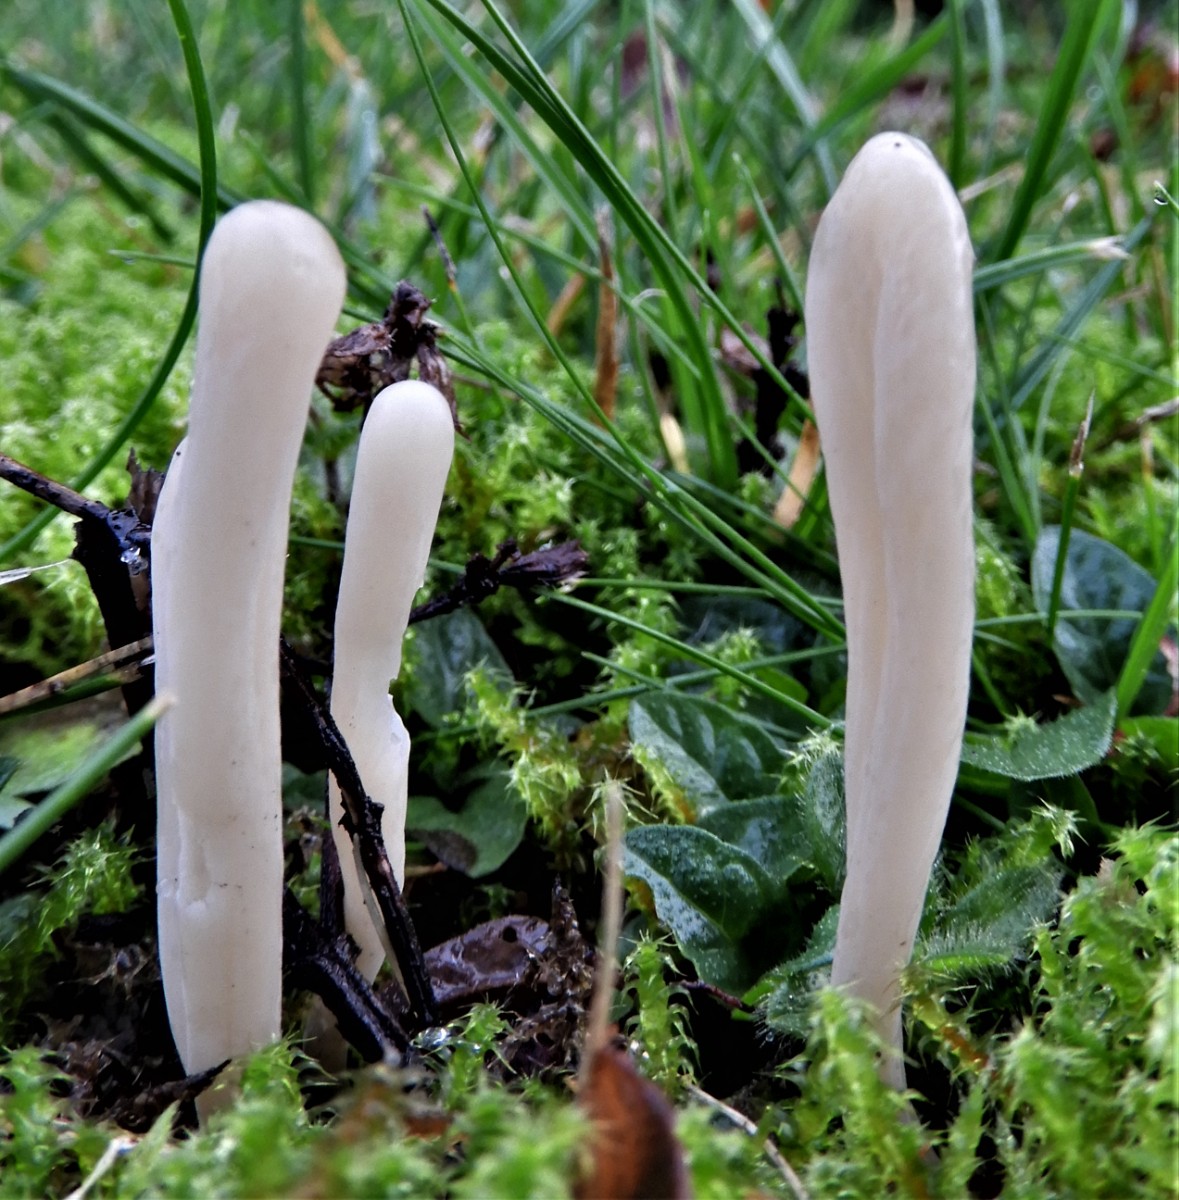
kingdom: Fungi
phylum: Basidiomycota
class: Agaricomycetes
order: Agaricales
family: Clavariaceae
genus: Clavaria
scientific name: Clavaria tenuipes
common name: isabellafarvet køllesvamp
